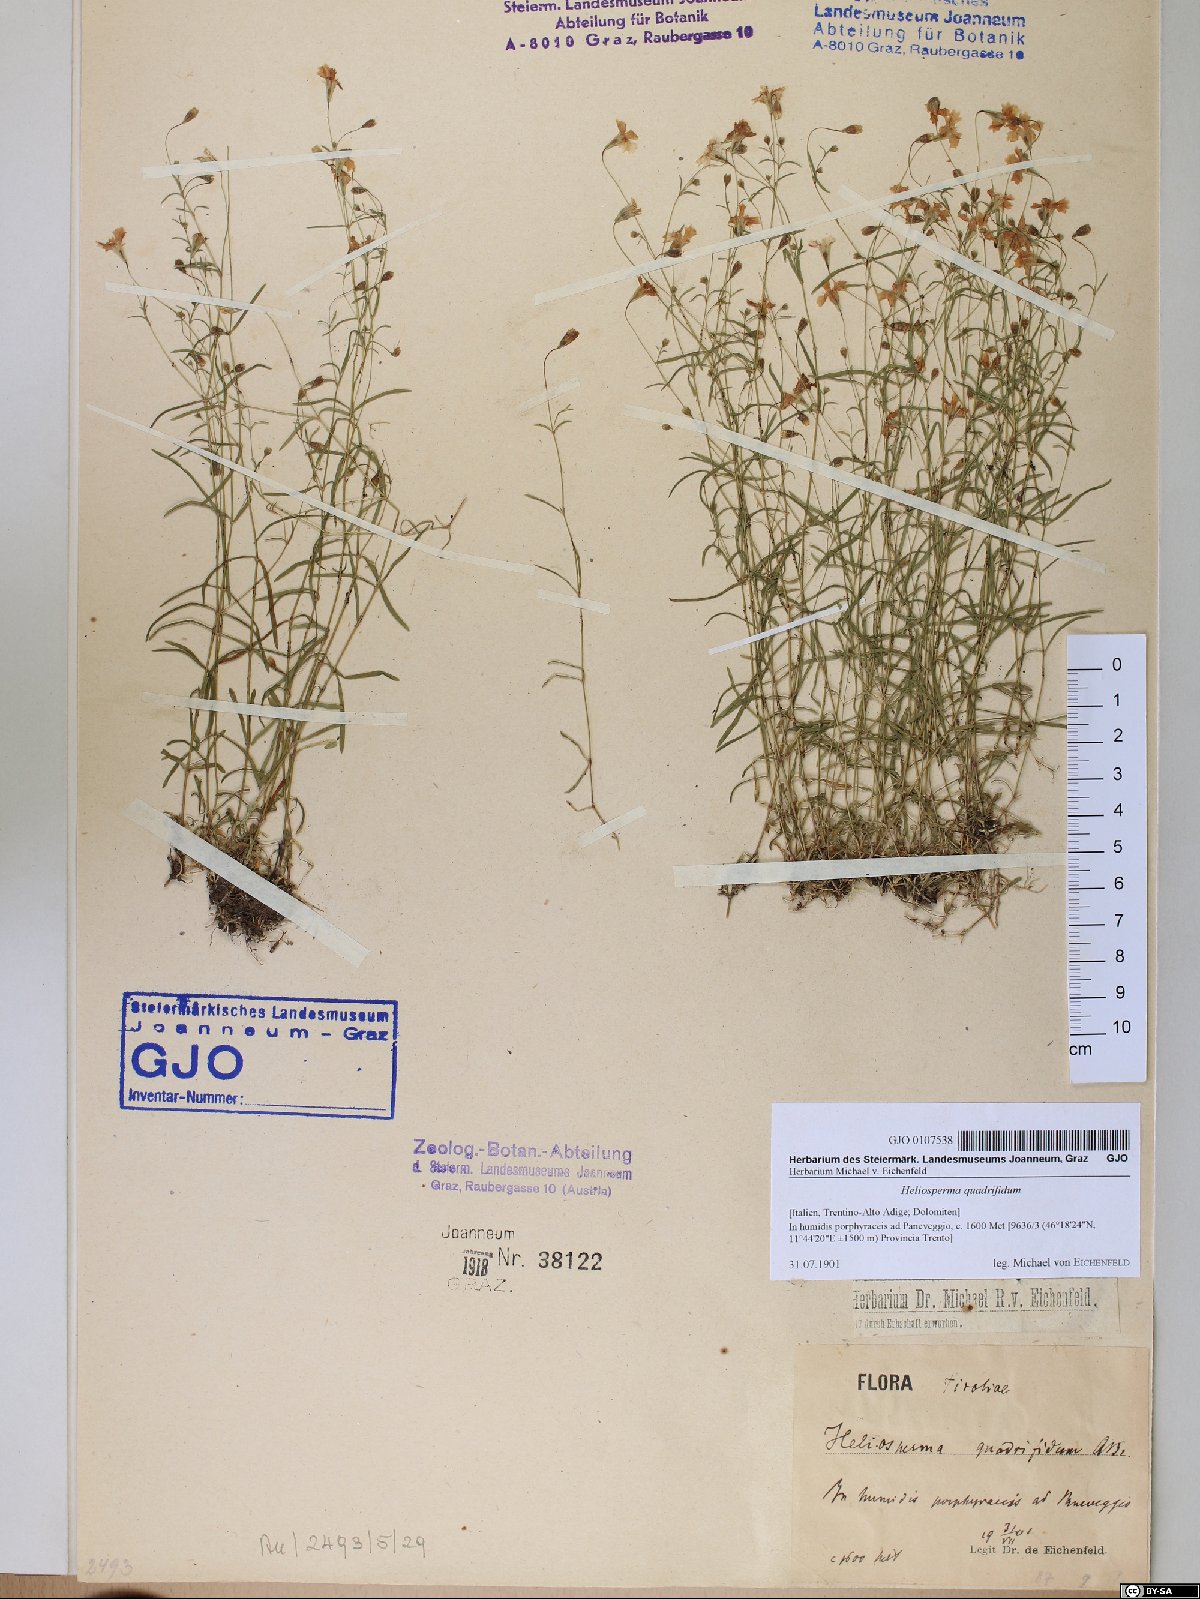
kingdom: Plantae
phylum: Tracheophyta
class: Magnoliopsida
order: Caryophyllales
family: Caryophyllaceae
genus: Heliosperma
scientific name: Heliosperma alpestre
